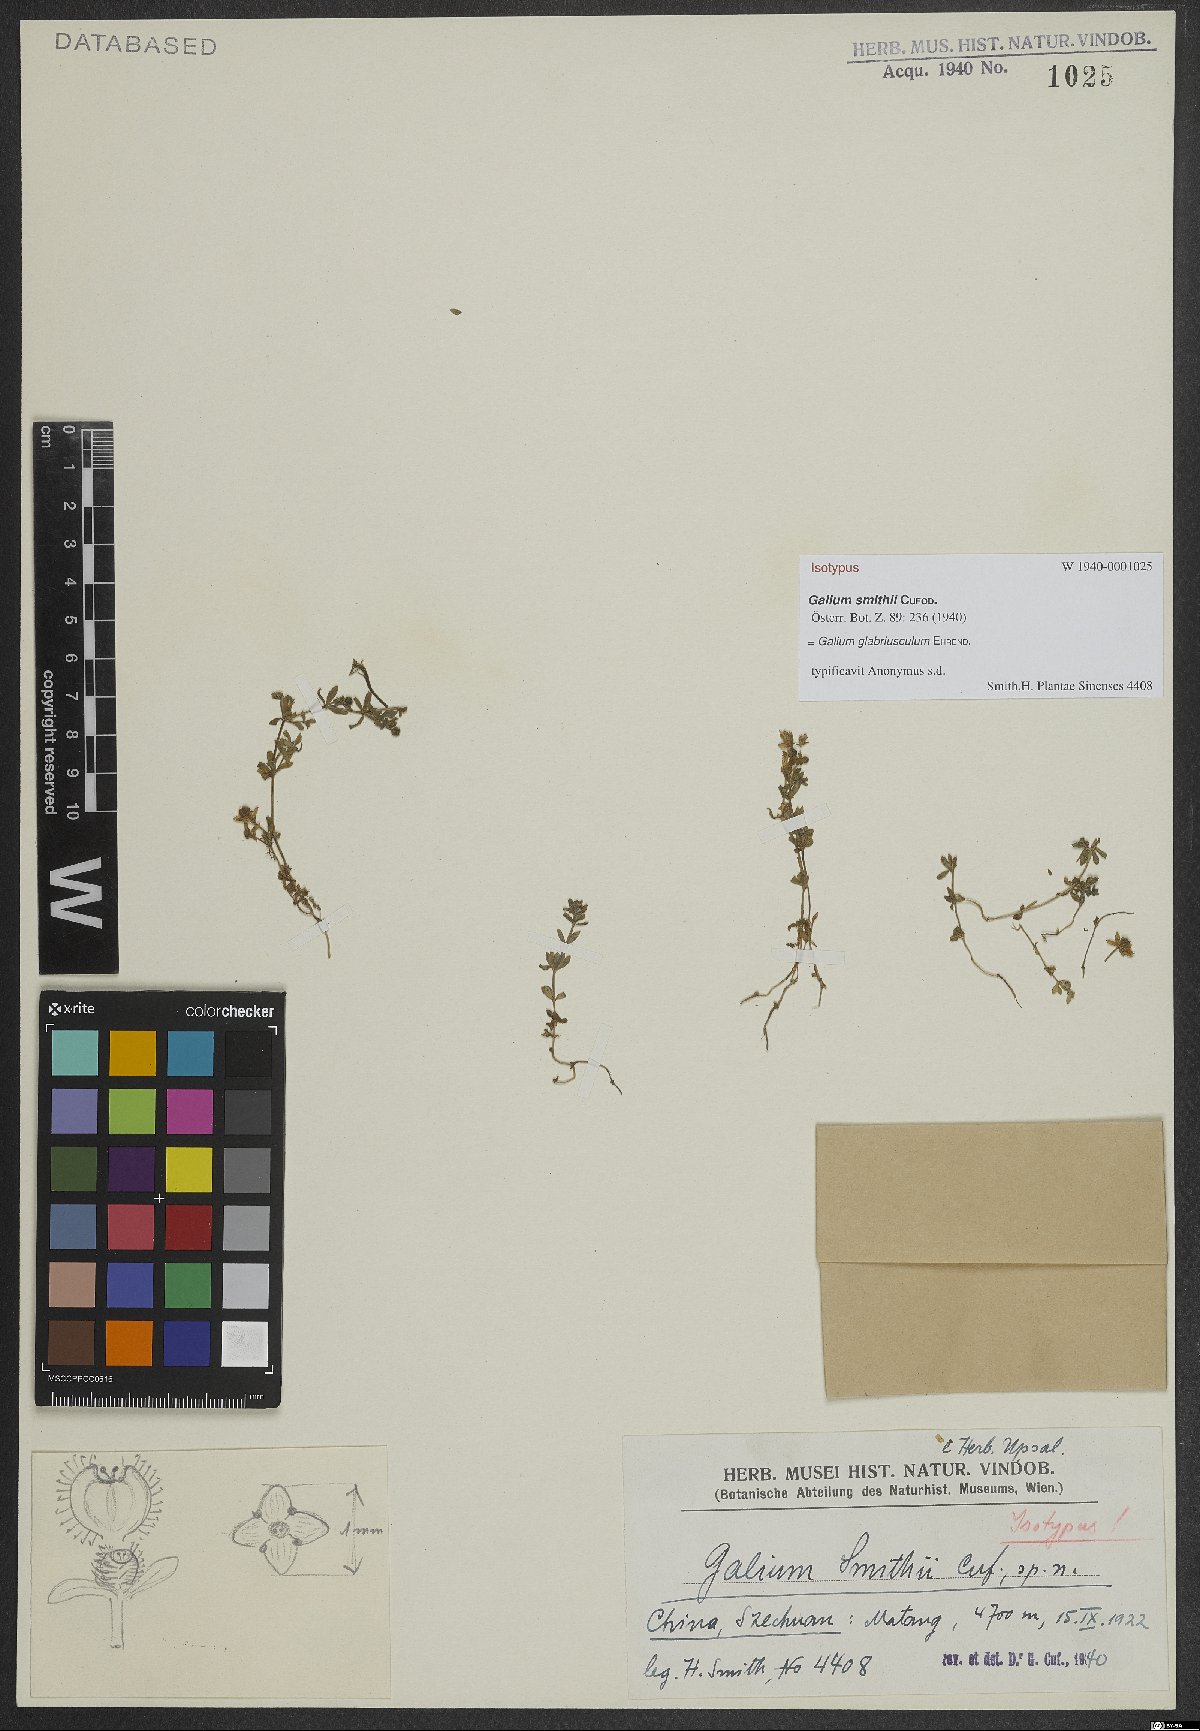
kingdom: Plantae
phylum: Tracheophyta
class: Magnoliopsida
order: Gentianales
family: Rubiaceae
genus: Galium
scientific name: Galium glabriusculum
